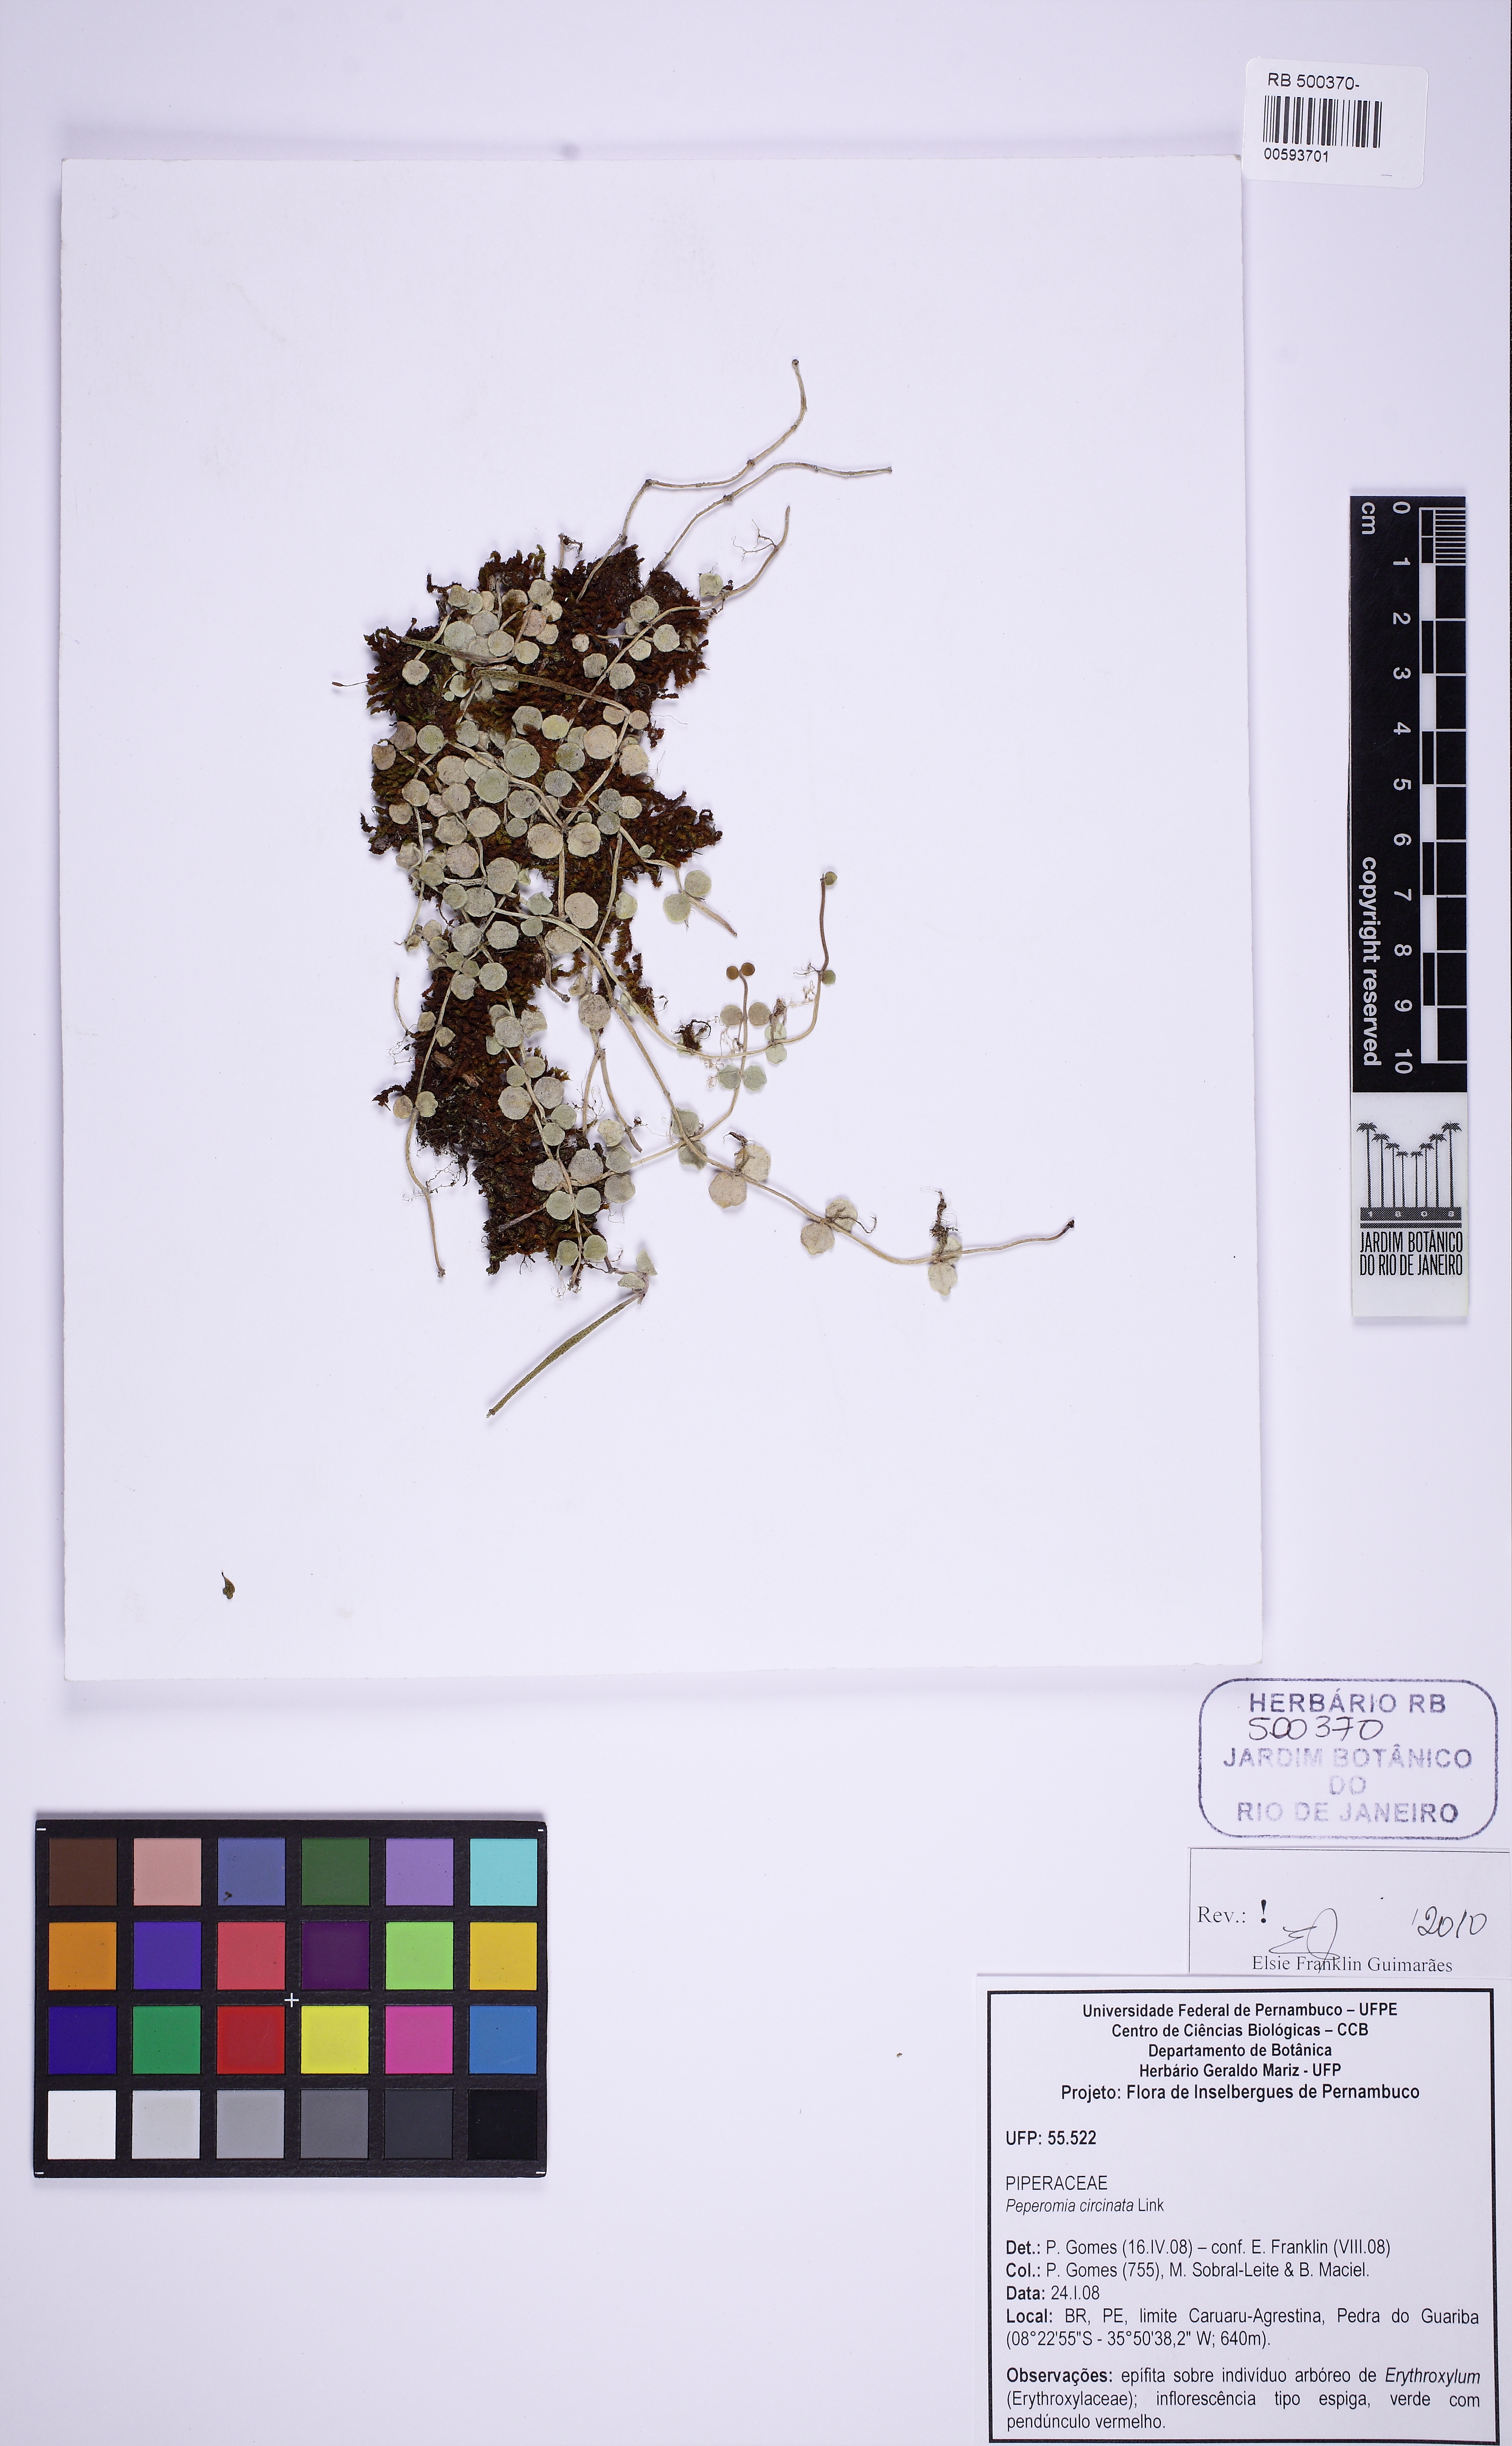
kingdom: Plantae
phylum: Tracheophyta
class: Magnoliopsida
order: Piperales
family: Piperaceae
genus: Peperomia
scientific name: Peperomia circinnata
